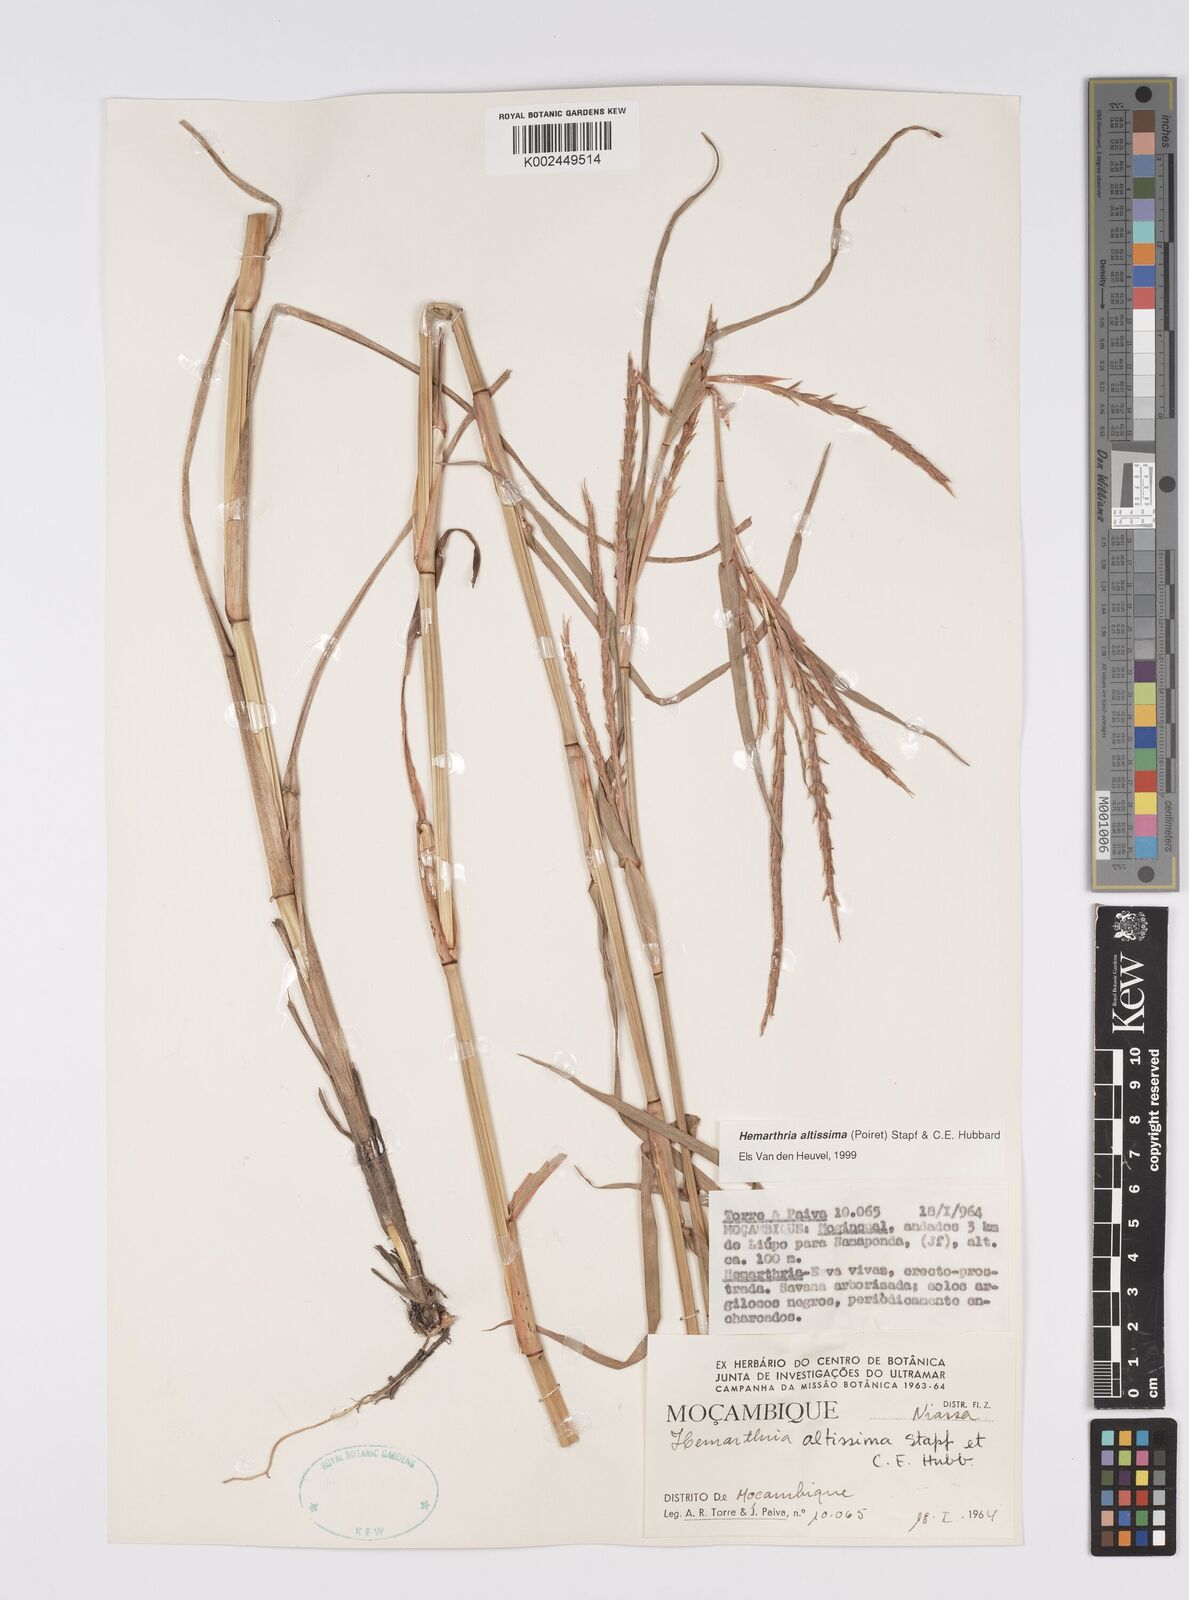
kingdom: Plantae
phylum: Tracheophyta
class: Liliopsida
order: Poales
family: Poaceae
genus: Hemarthria
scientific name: Hemarthria altissima
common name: African jointgrass
